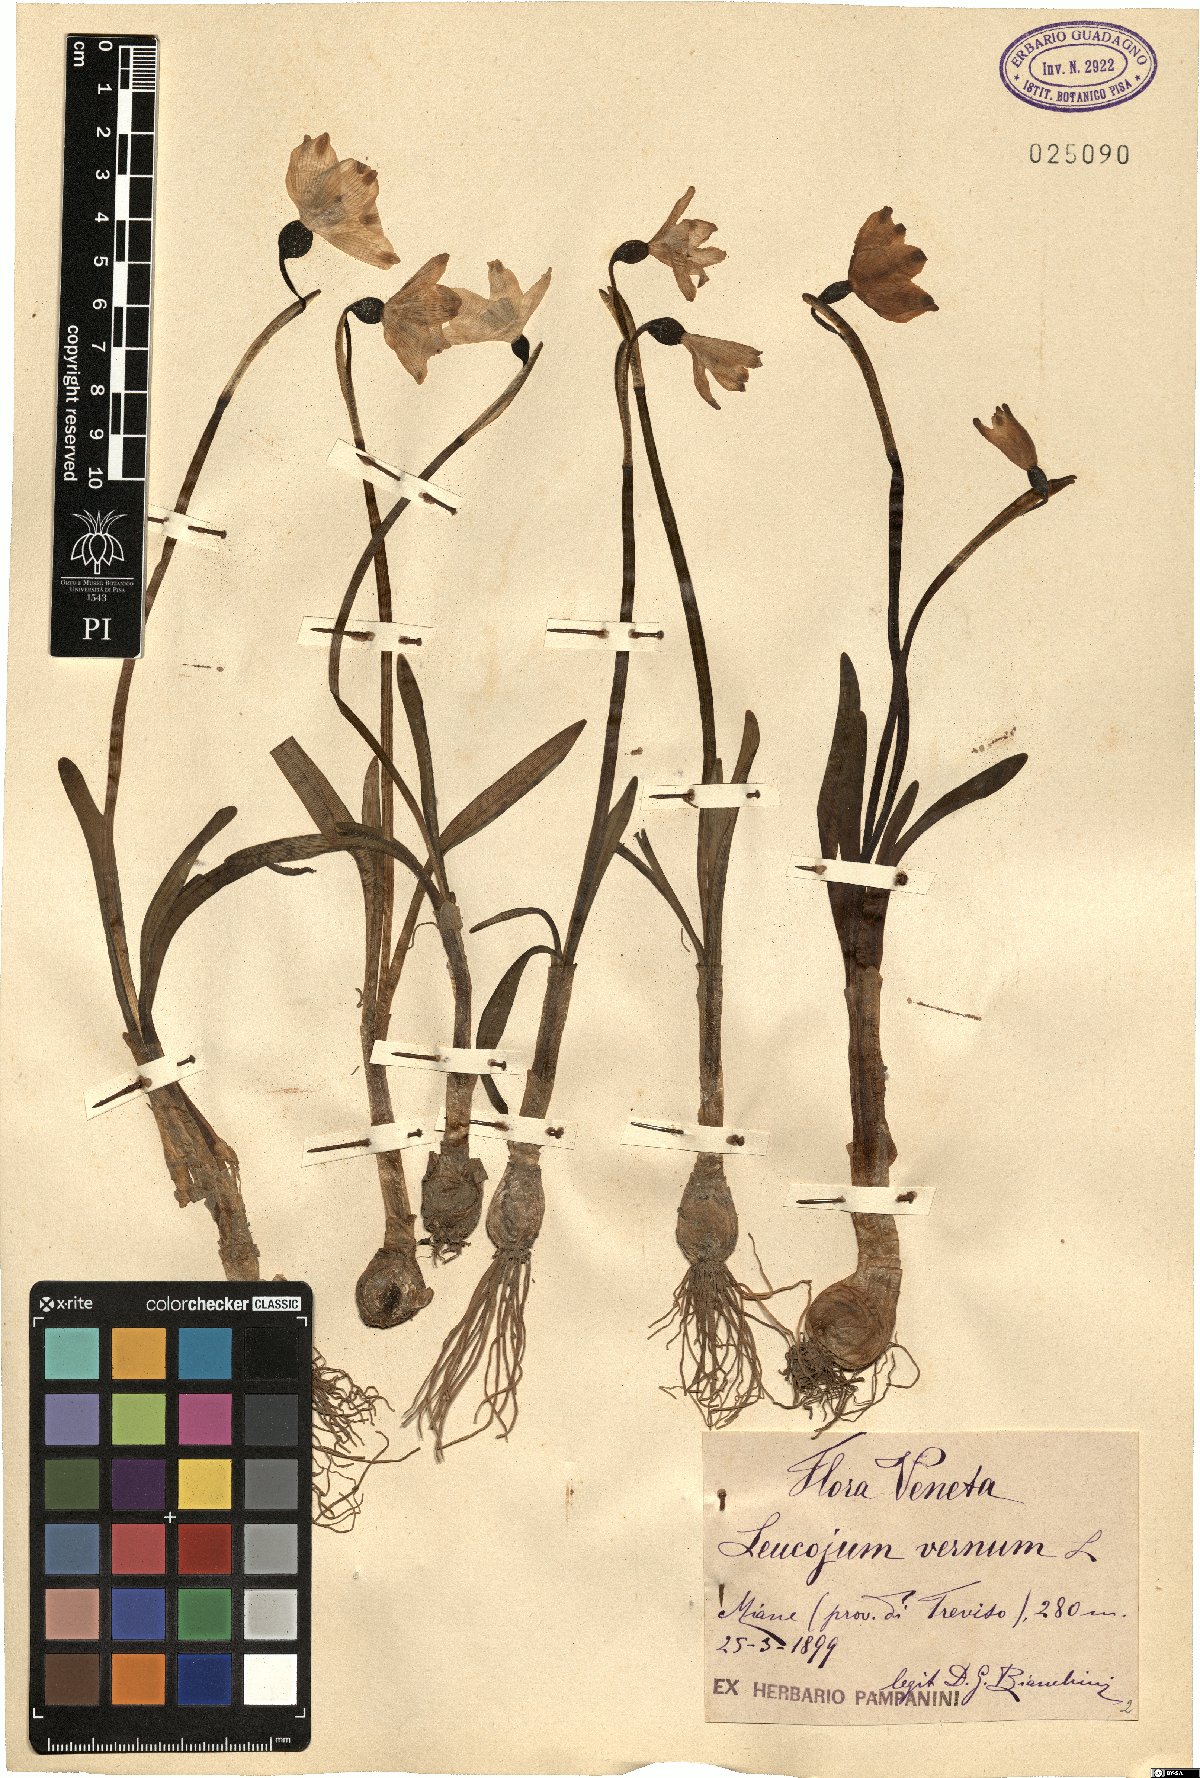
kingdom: Plantae
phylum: Tracheophyta
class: Liliopsida
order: Asparagales
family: Amaryllidaceae
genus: Leucojum
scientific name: Leucojum vernum
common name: Spring snowflake
